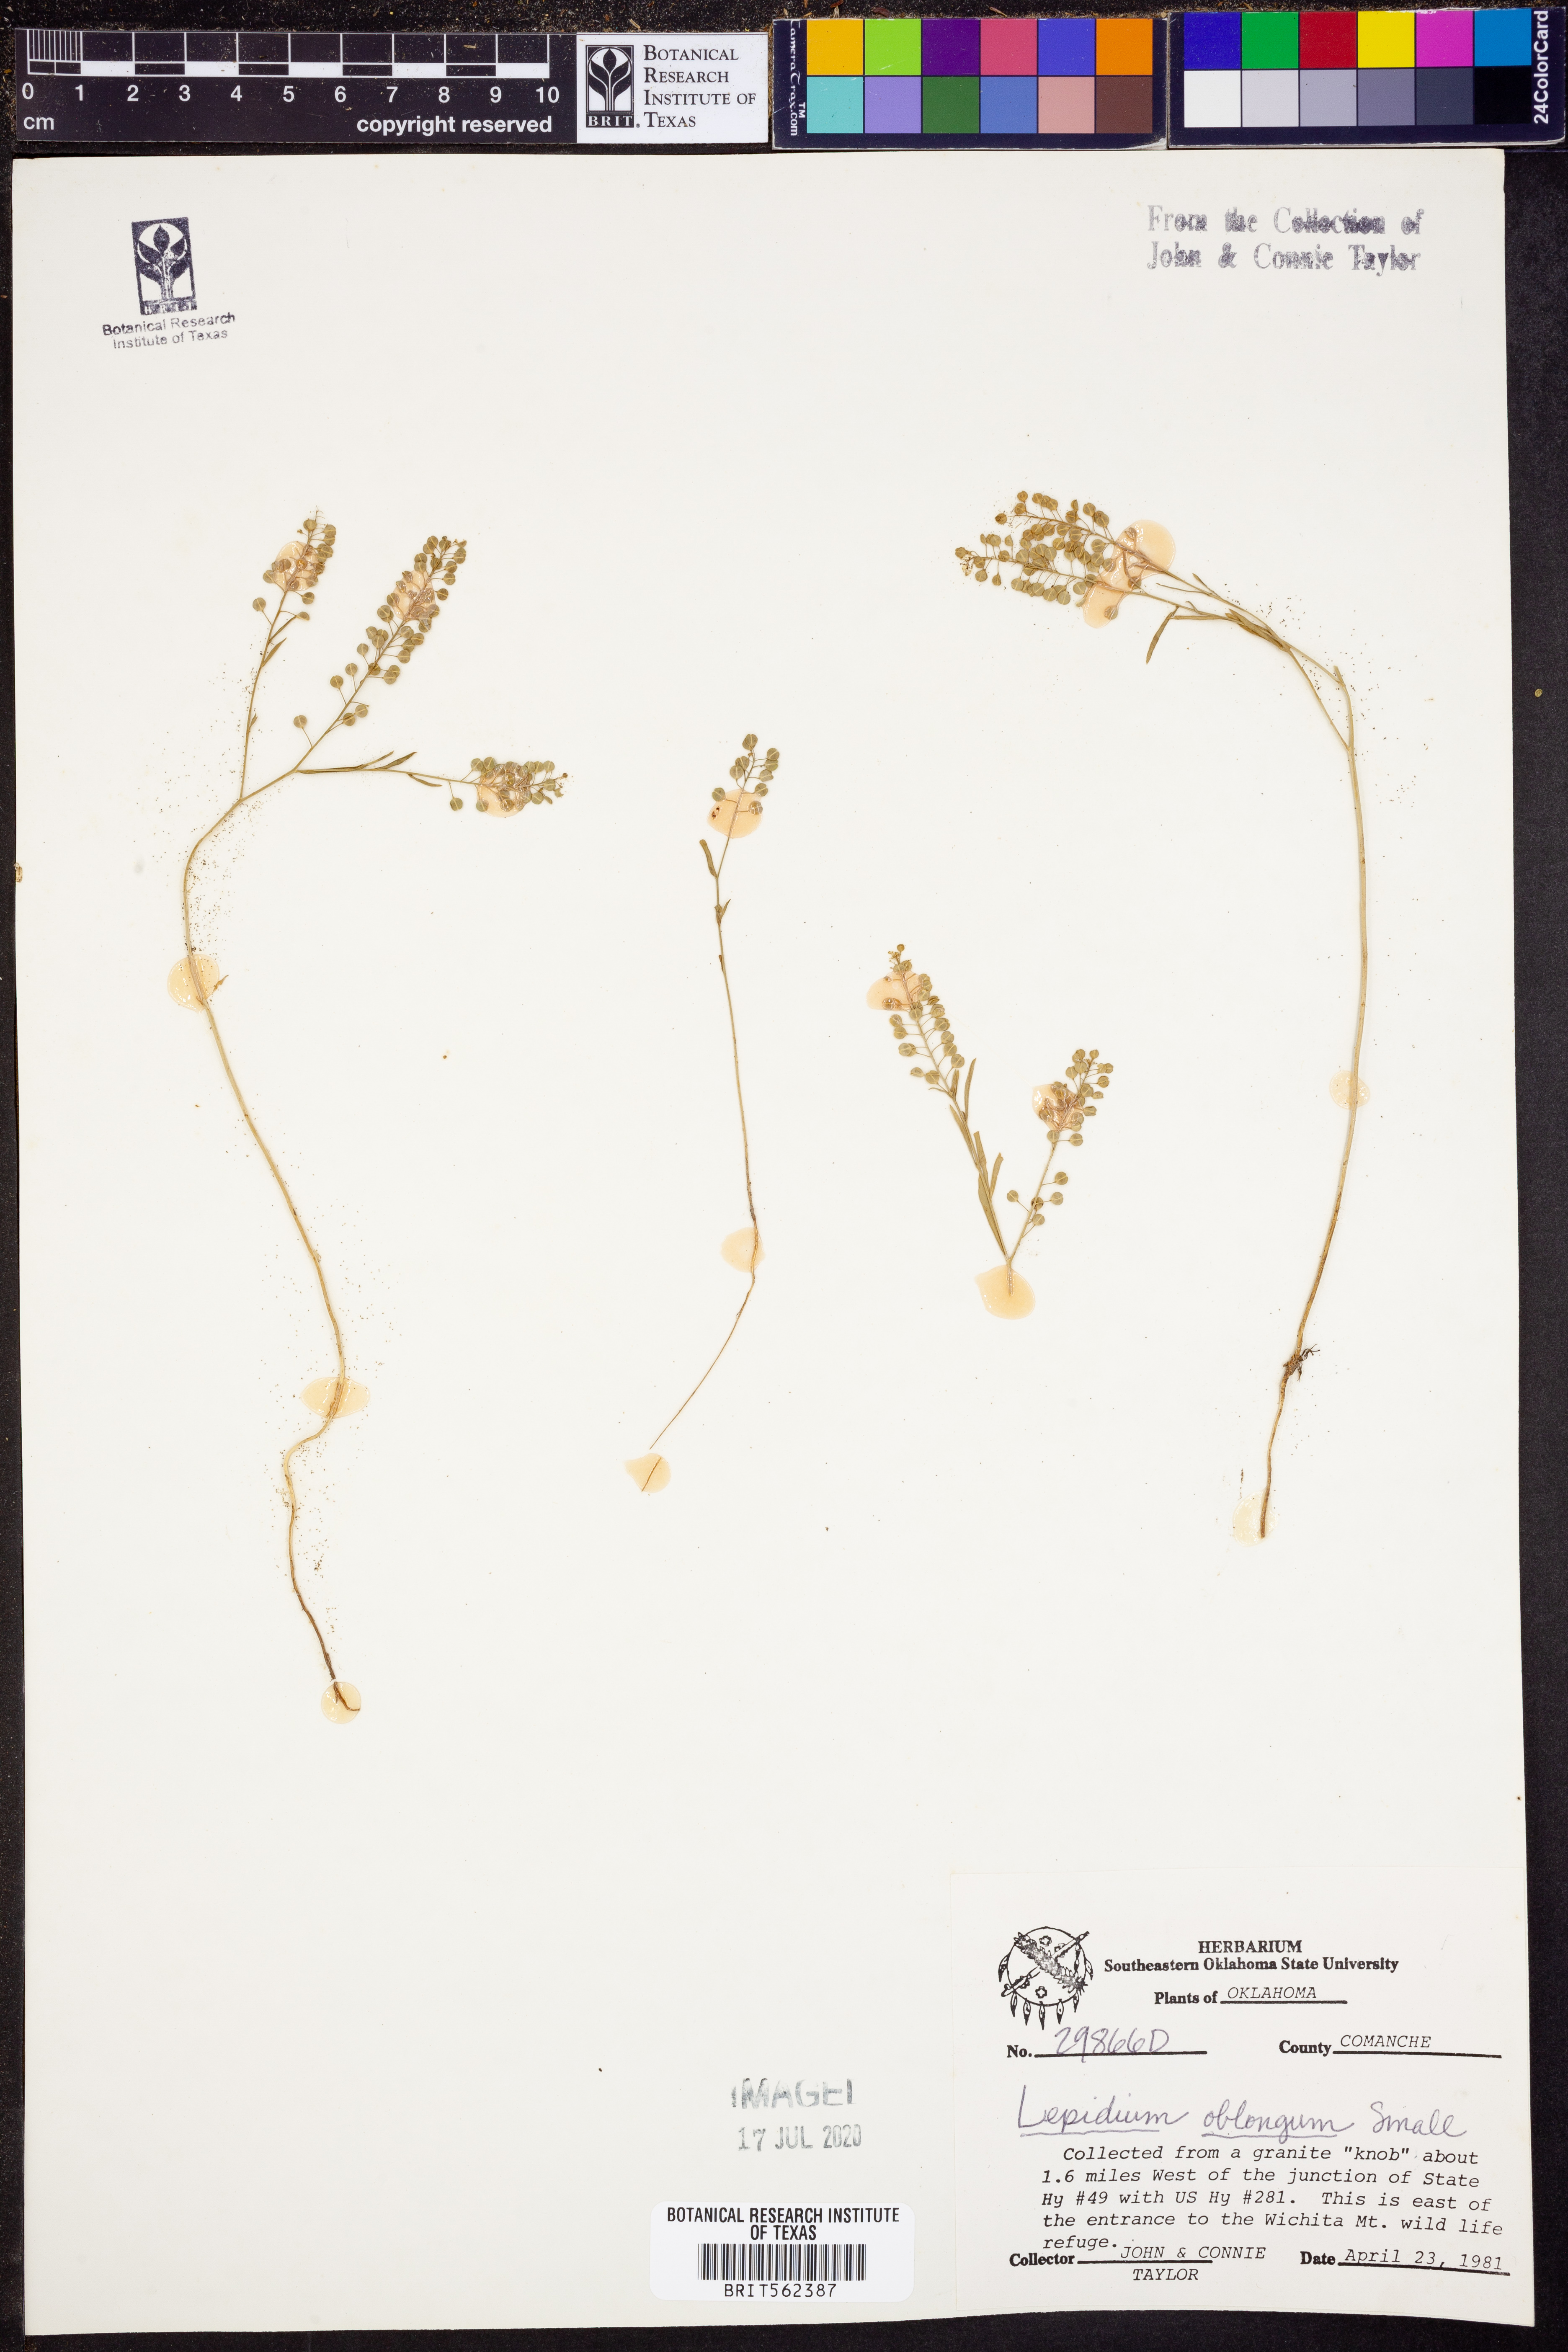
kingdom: Plantae
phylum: Tracheophyta
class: Magnoliopsida
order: Brassicales
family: Brassicaceae
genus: Lepidium
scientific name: Lepidium oblongum
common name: Veiny pepperweed
